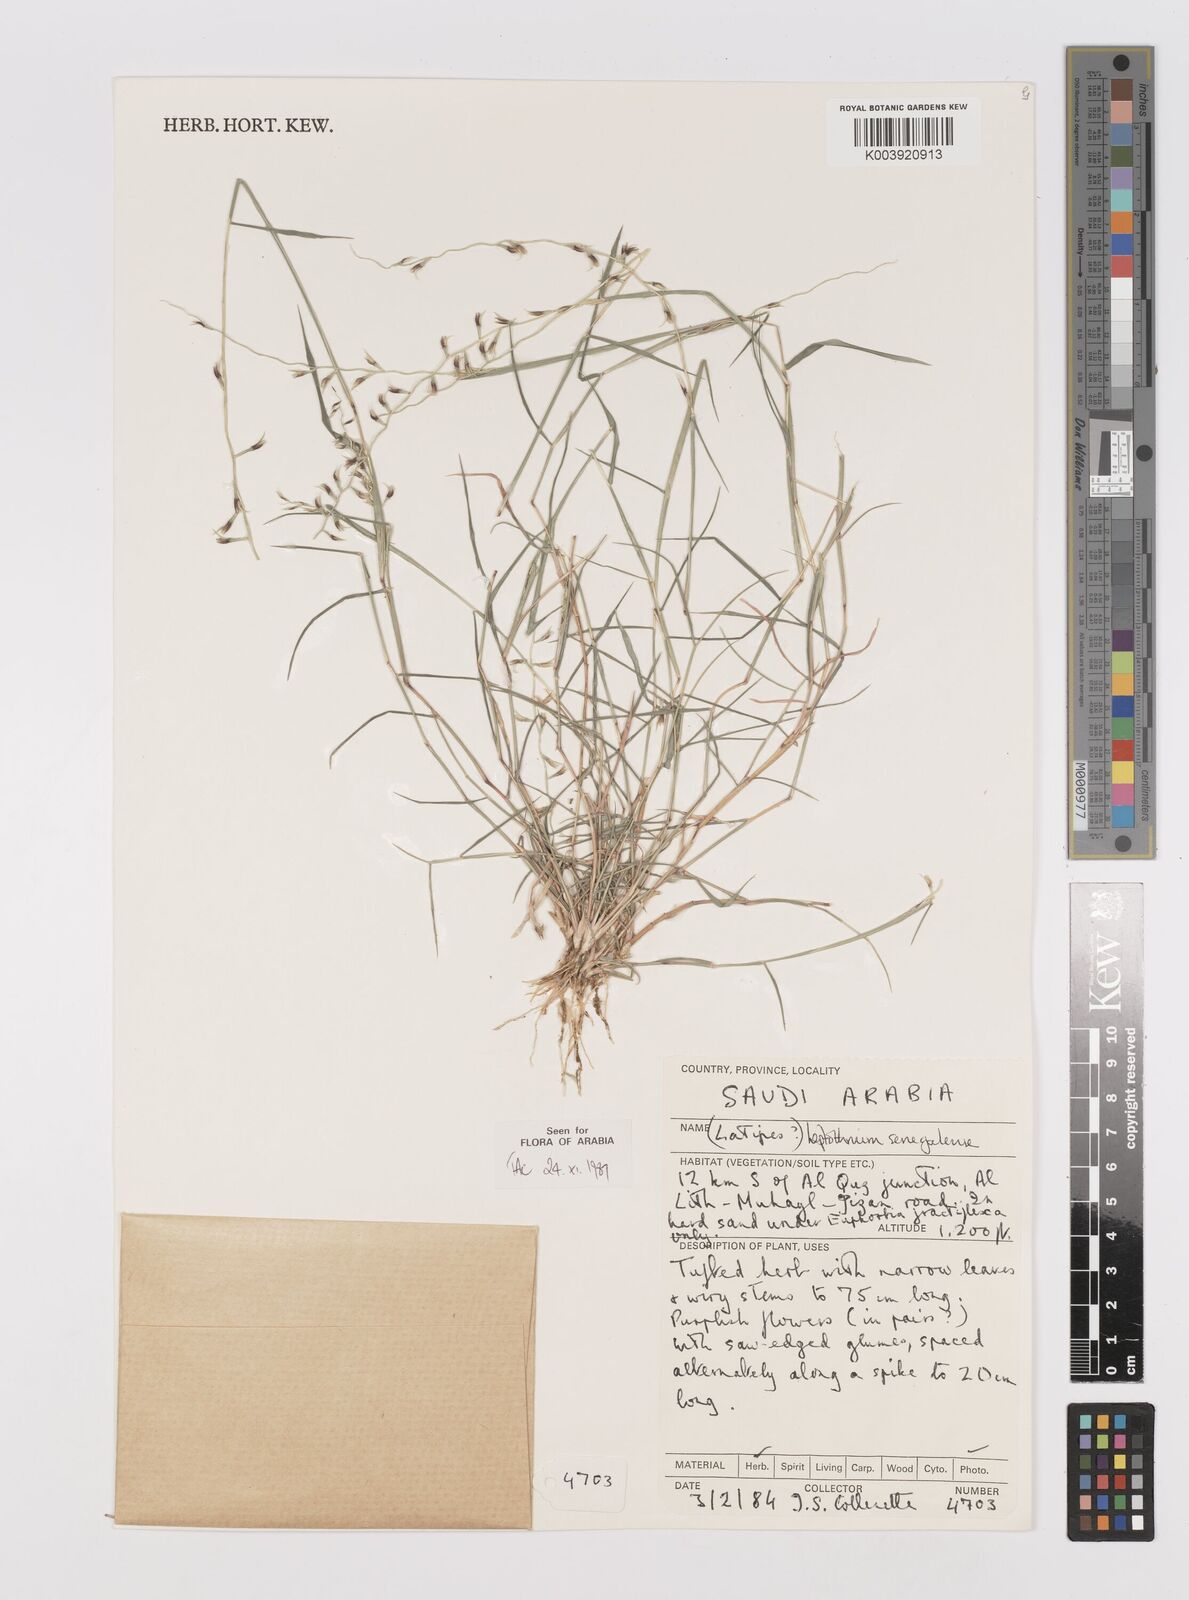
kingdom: Plantae
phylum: Tracheophyta
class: Liliopsida
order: Poales
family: Poaceae
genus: Leptothrium
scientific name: Leptothrium senegalense
